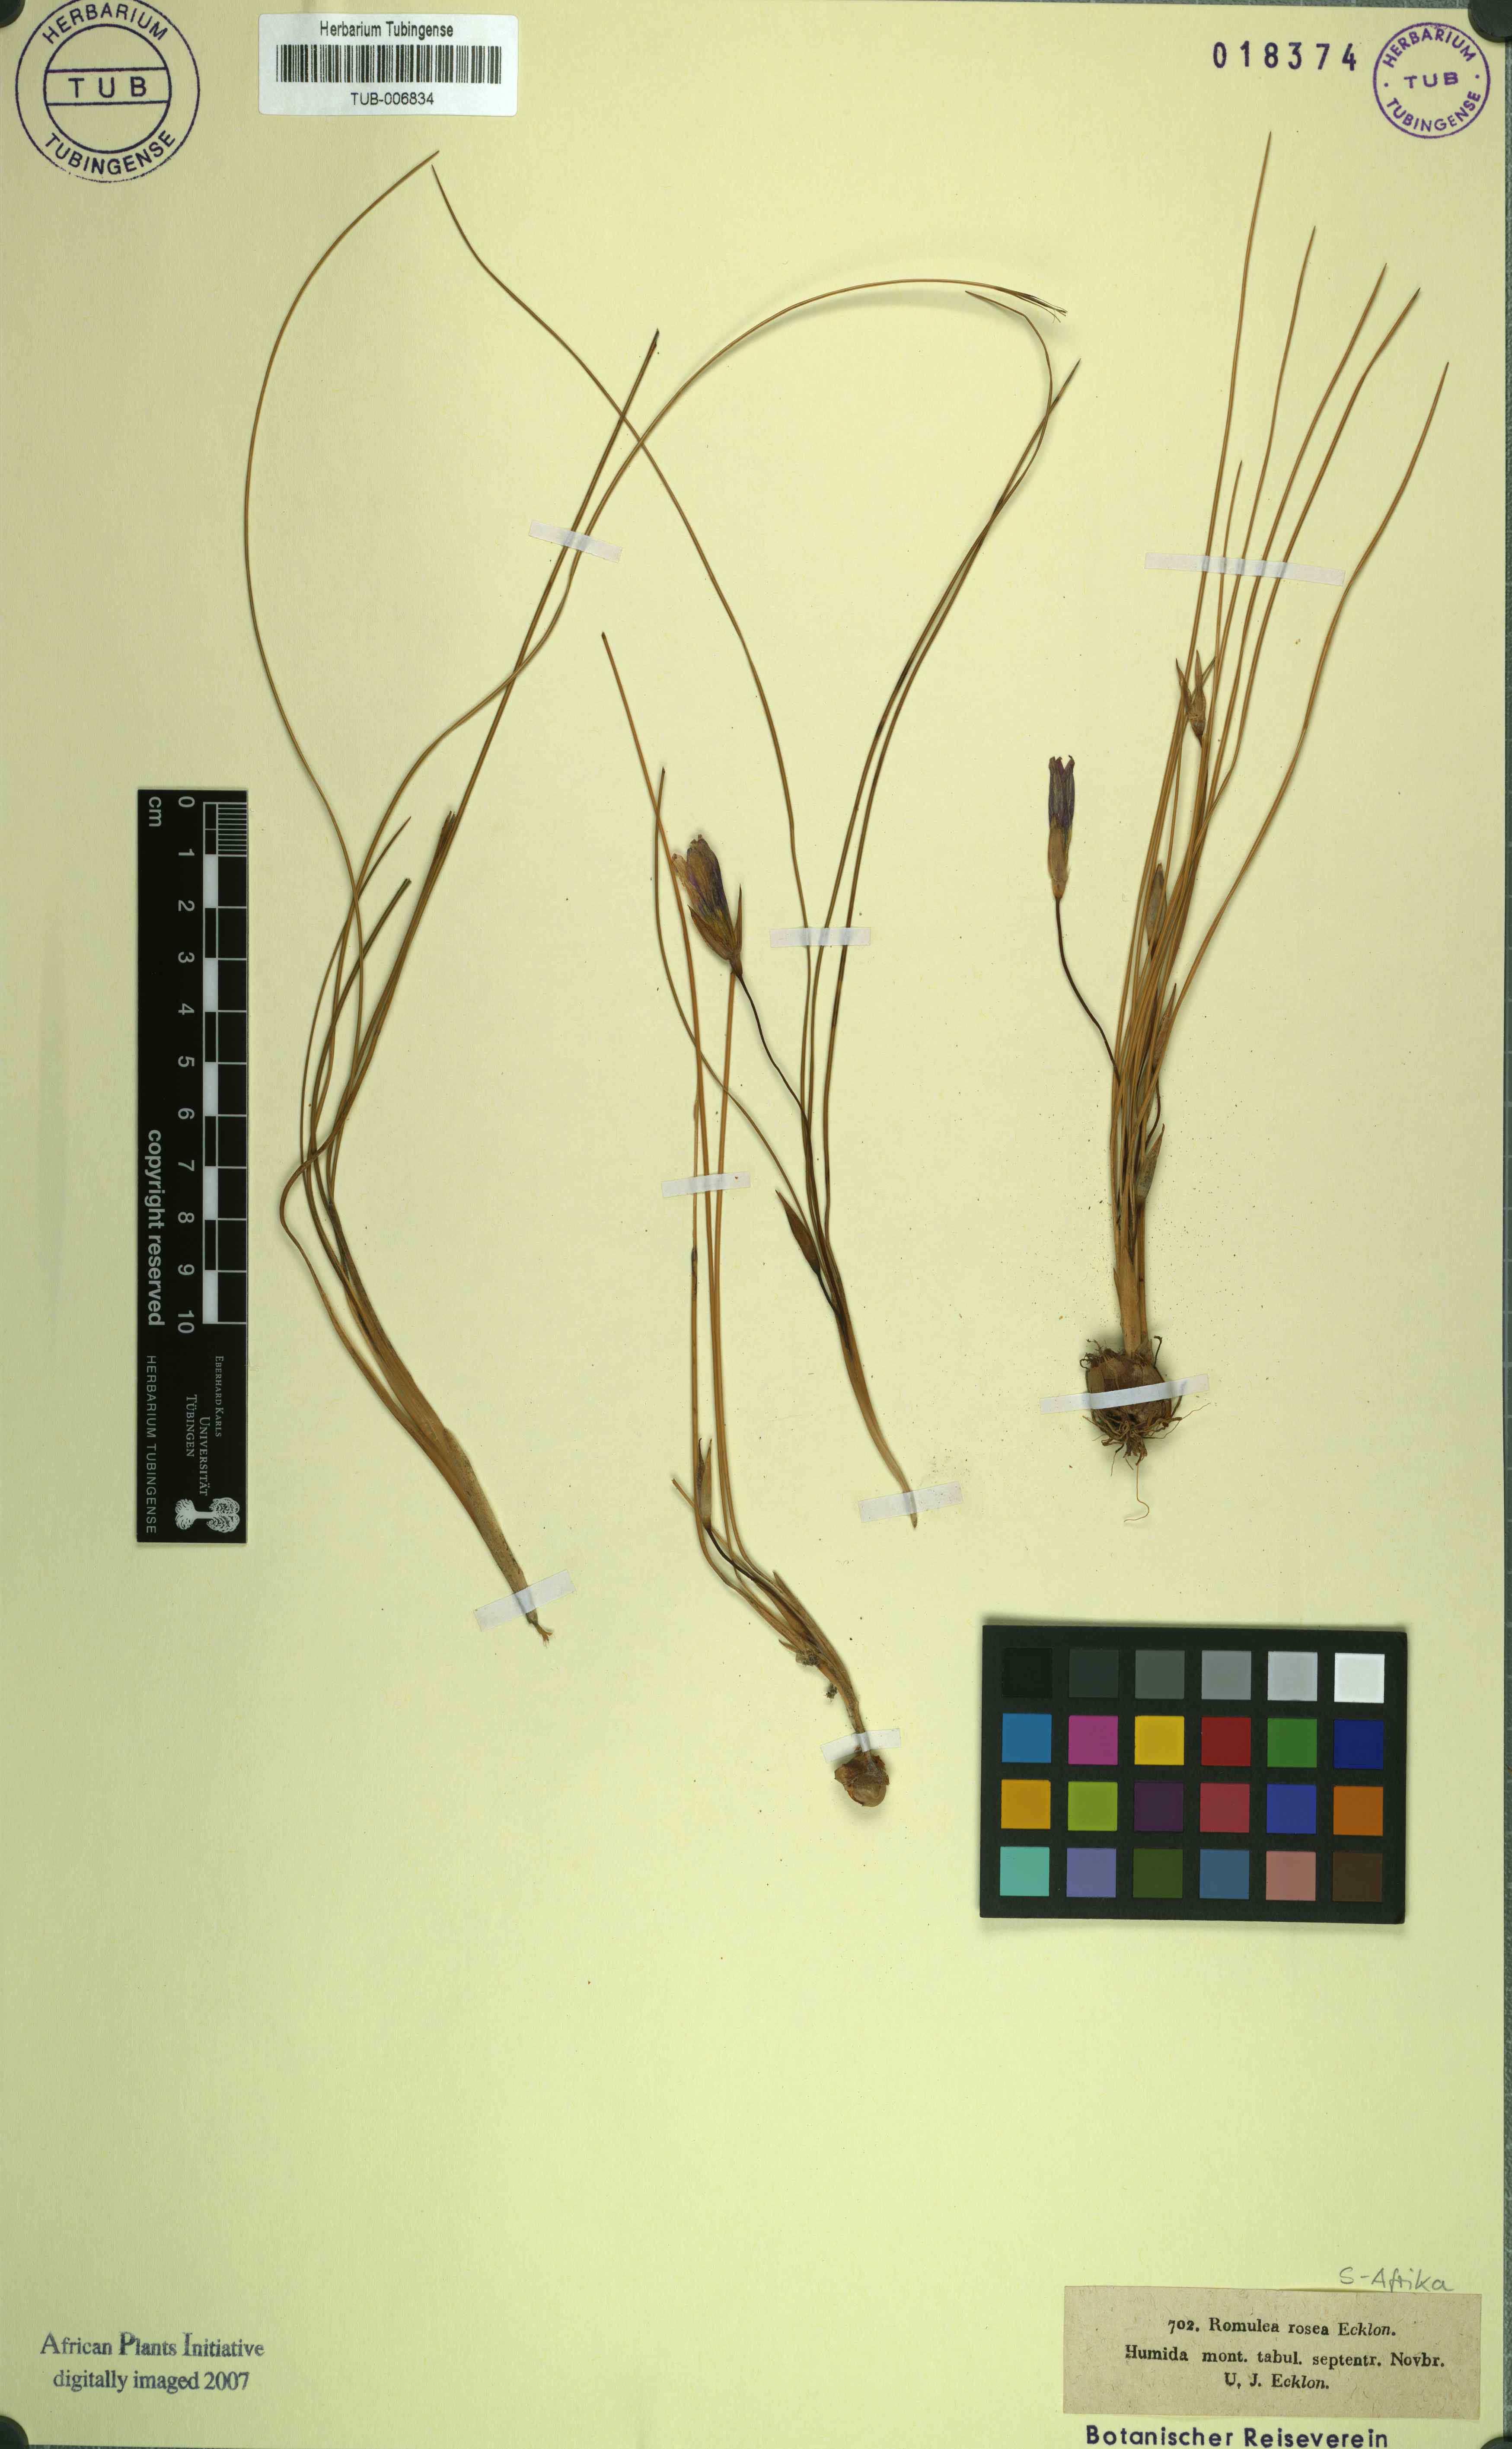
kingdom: Plantae
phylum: Tracheophyta
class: Liliopsida
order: Asparagales
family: Iridaceae
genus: Romulea
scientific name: Romulea rosea
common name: Oniongrass
